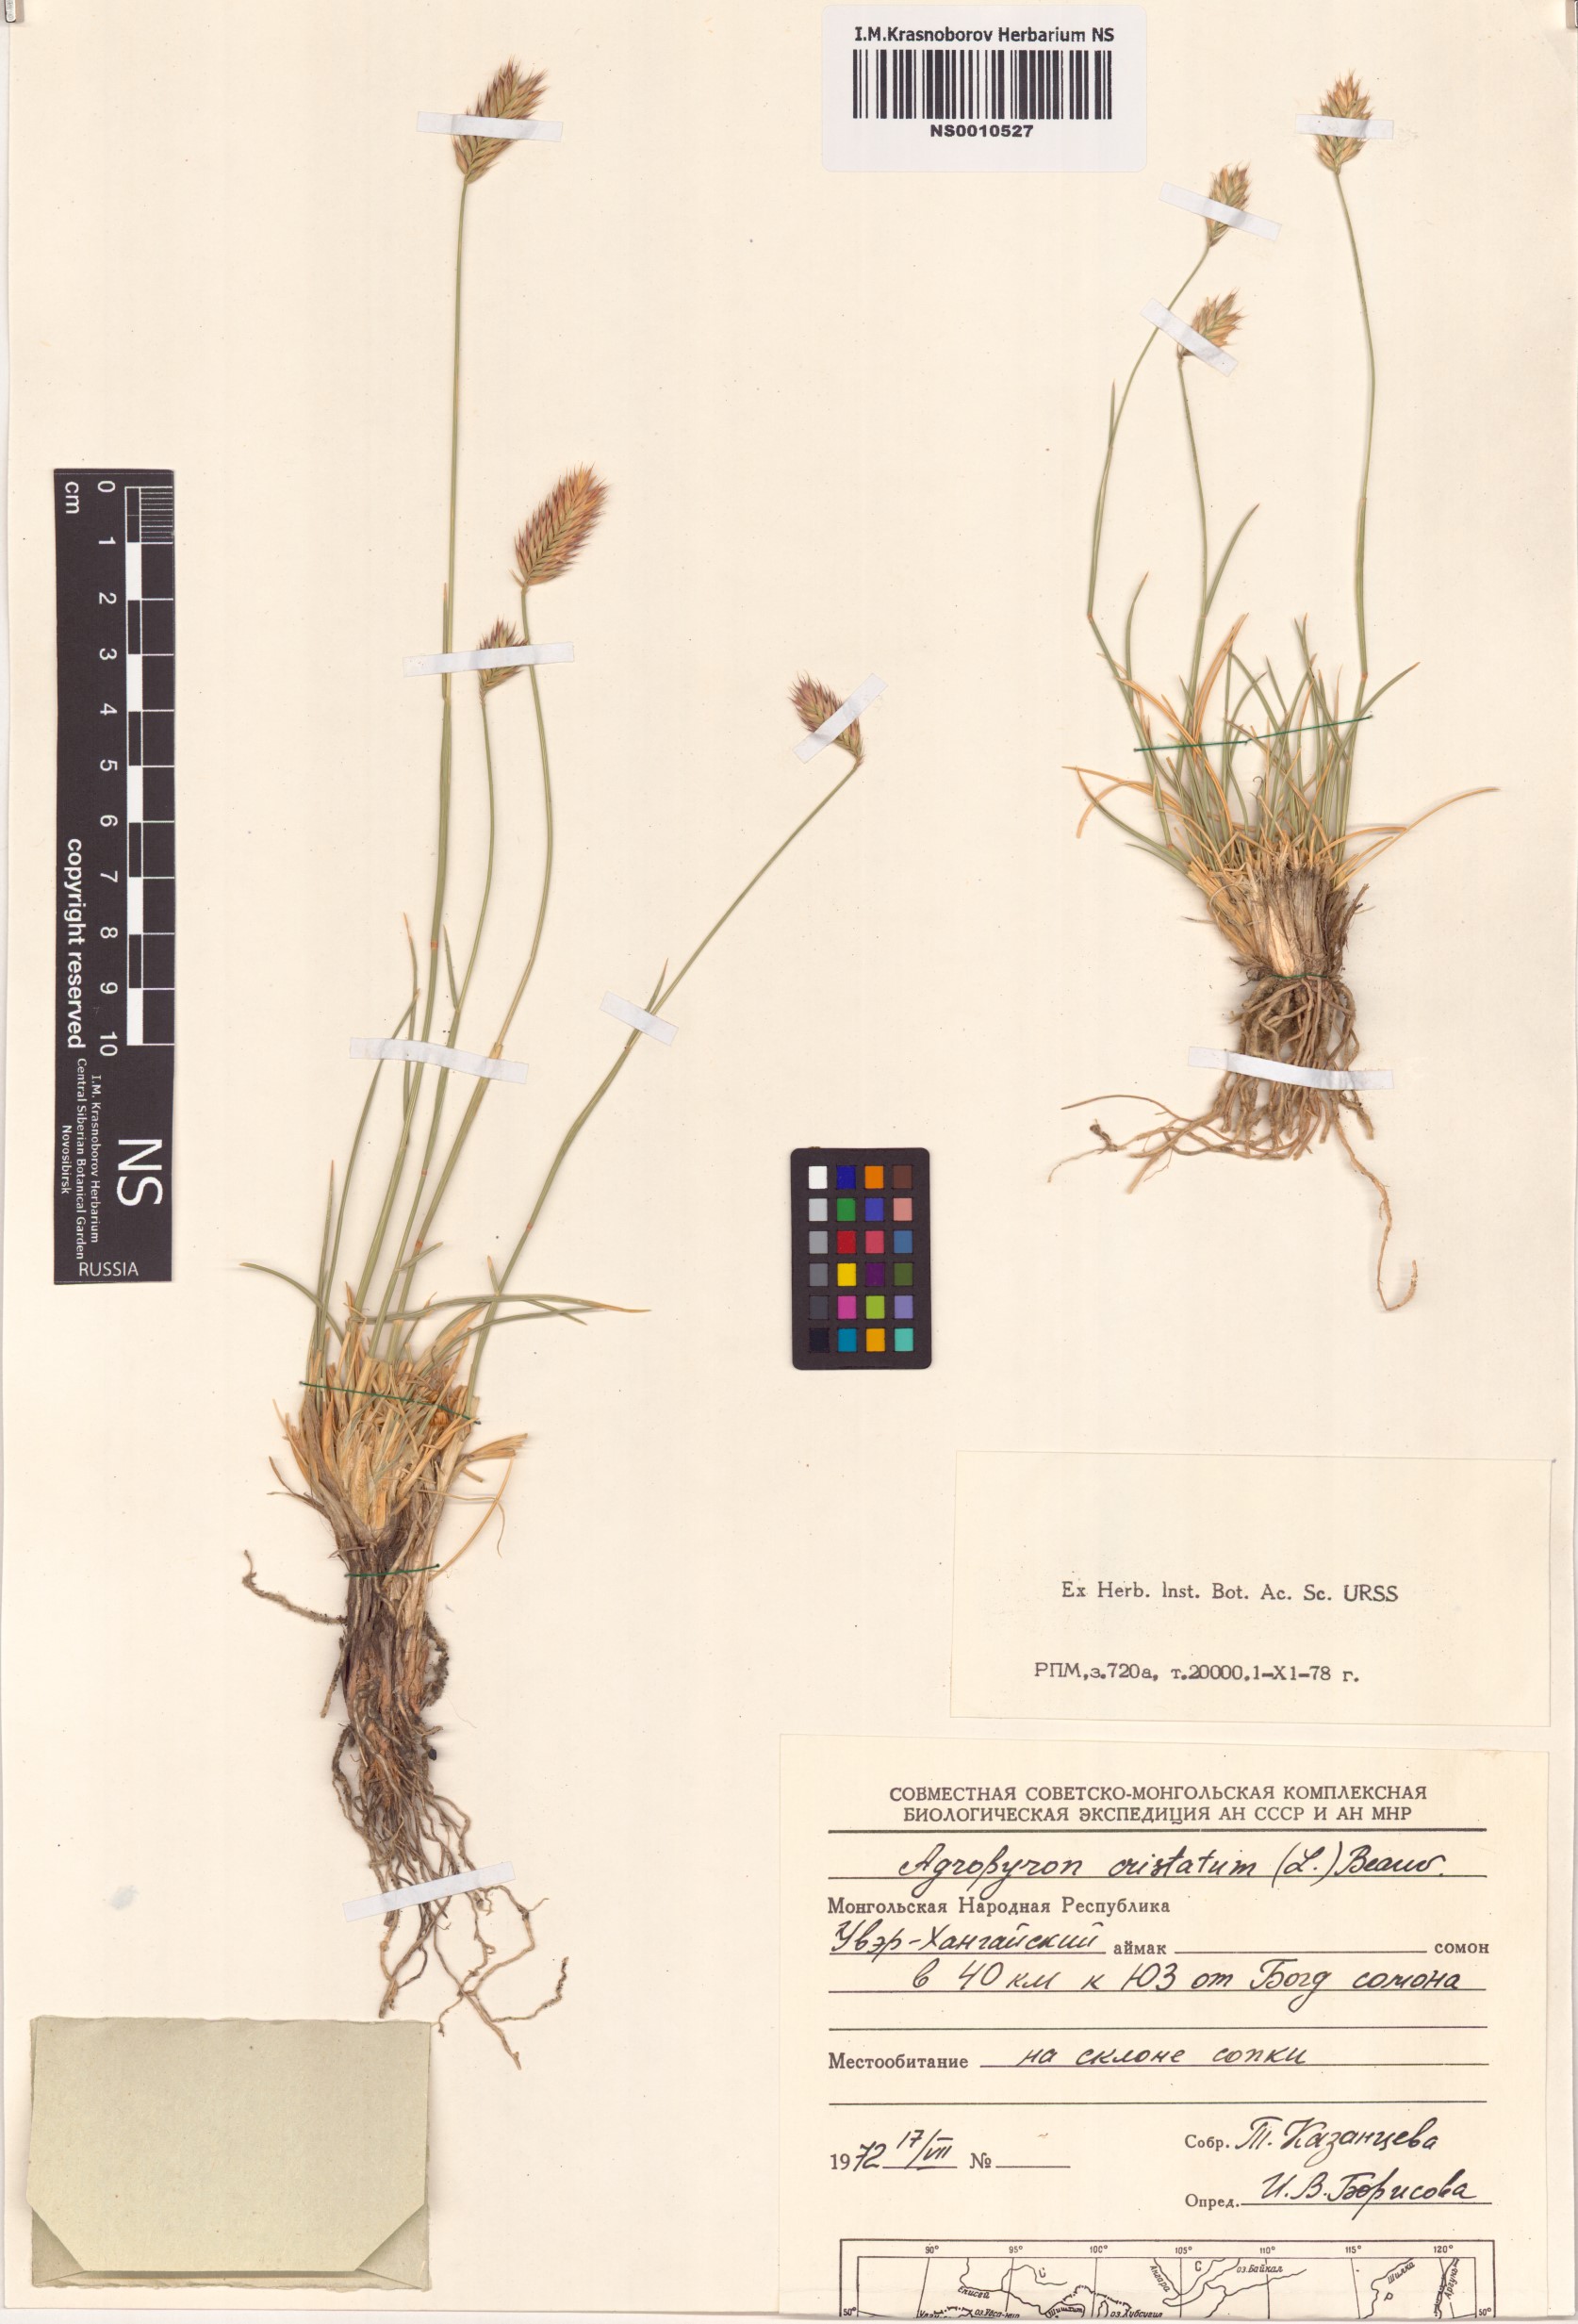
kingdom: Plantae
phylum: Tracheophyta
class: Liliopsida
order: Poales
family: Poaceae
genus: Agropyron
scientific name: Agropyron cristatum
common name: Crested wheatgrass
